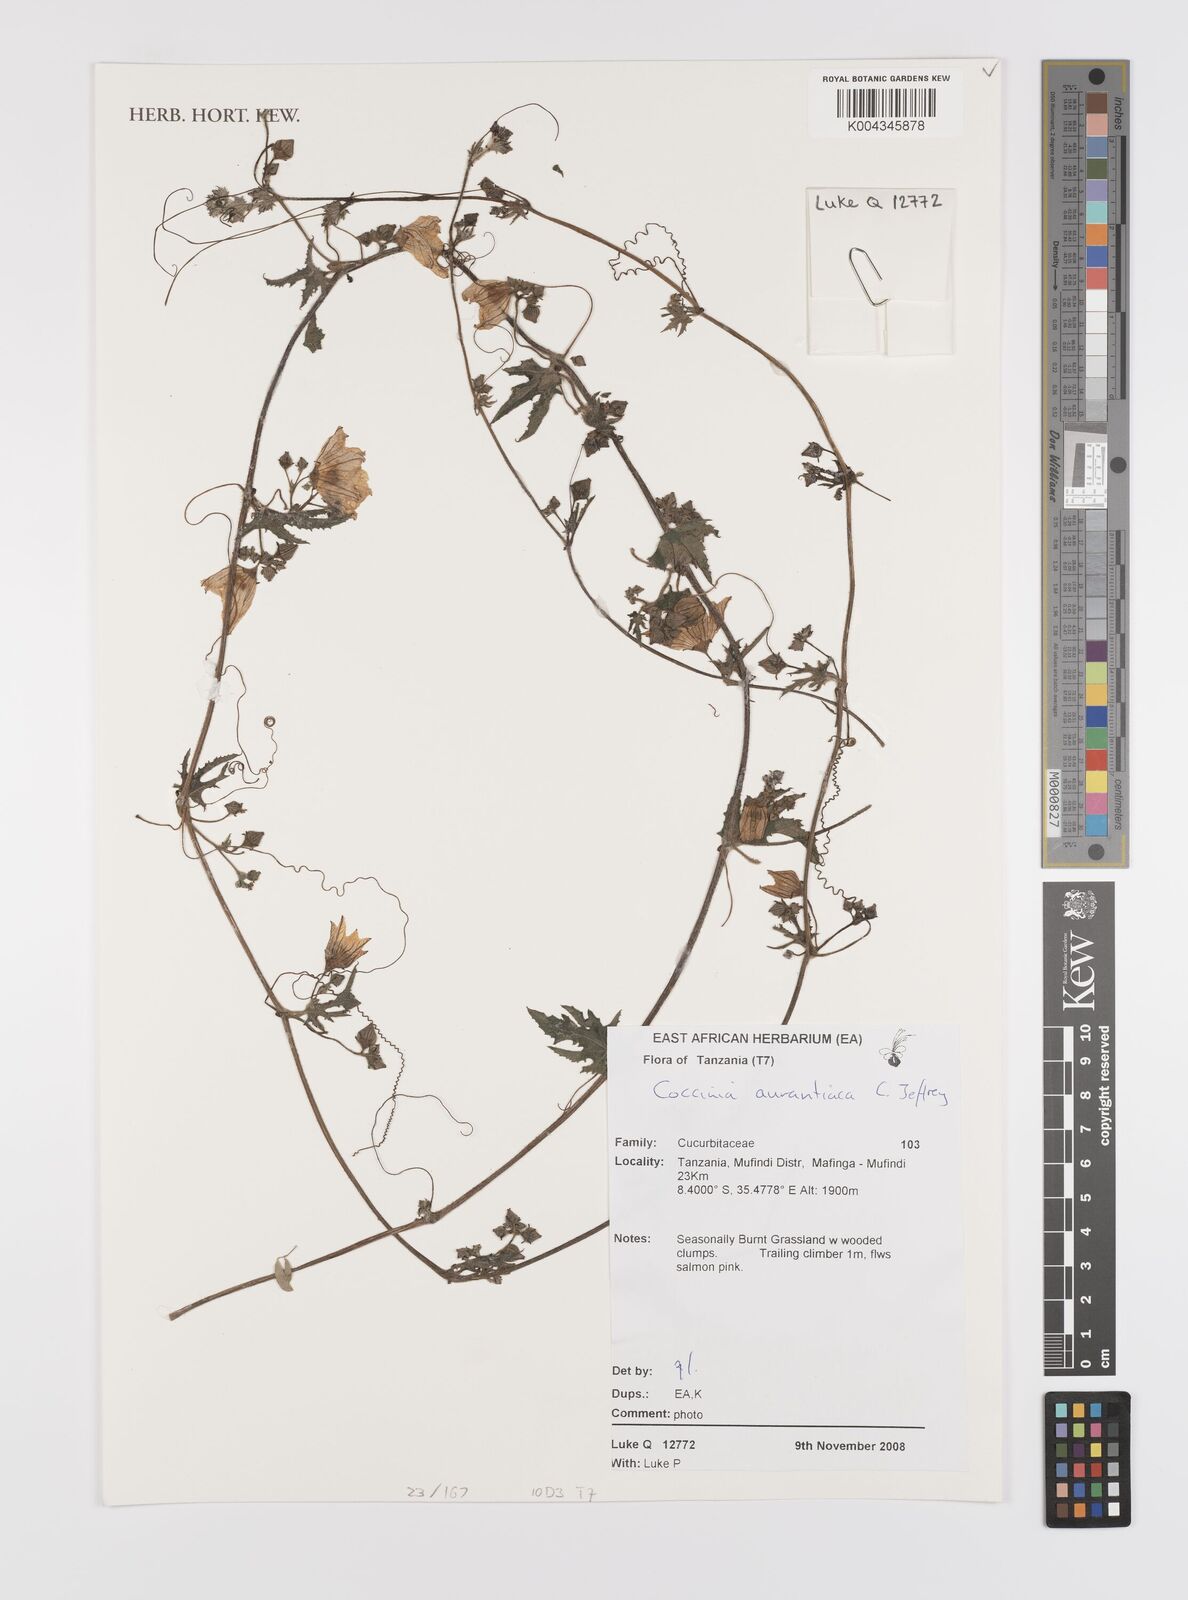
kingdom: Plantae
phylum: Tracheophyta
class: Magnoliopsida
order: Cucurbitales
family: Cucurbitaceae
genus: Coccinia
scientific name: Coccinia adoensis
